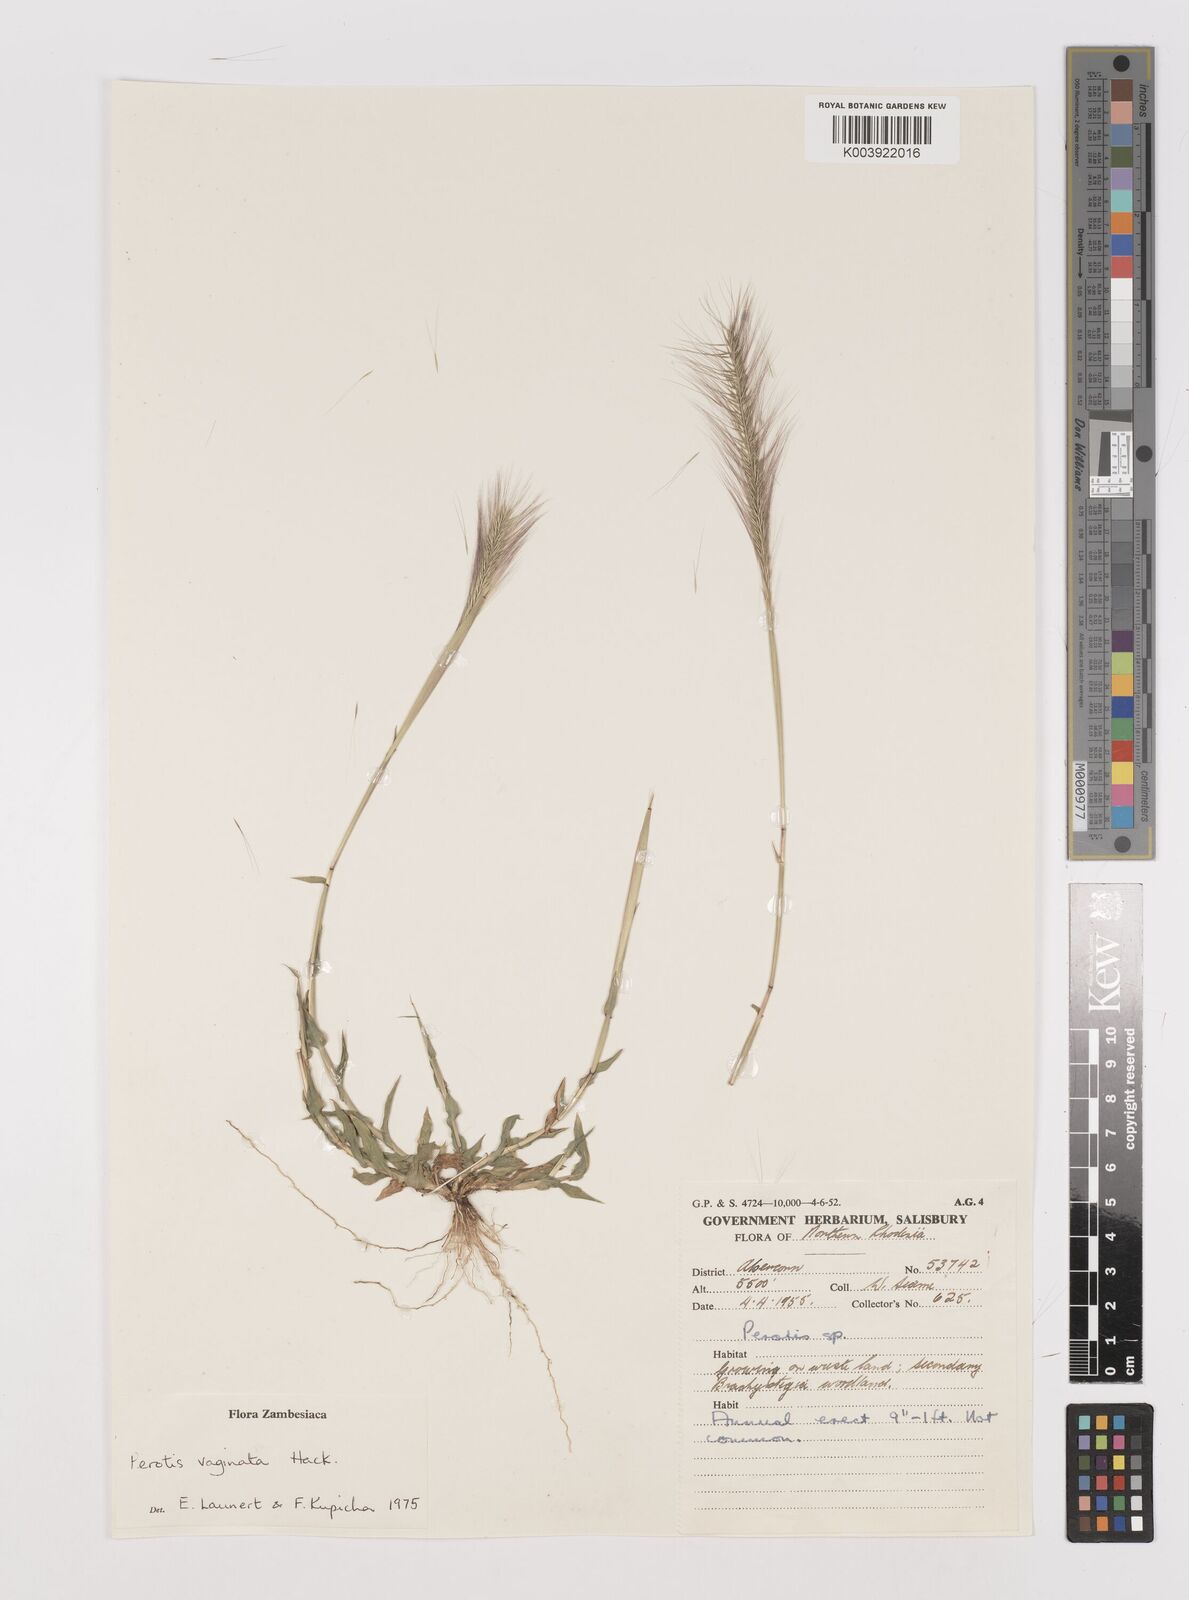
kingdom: Plantae
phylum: Tracheophyta
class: Liliopsida
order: Poales
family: Poaceae
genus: Perotis
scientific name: Perotis vaginata
